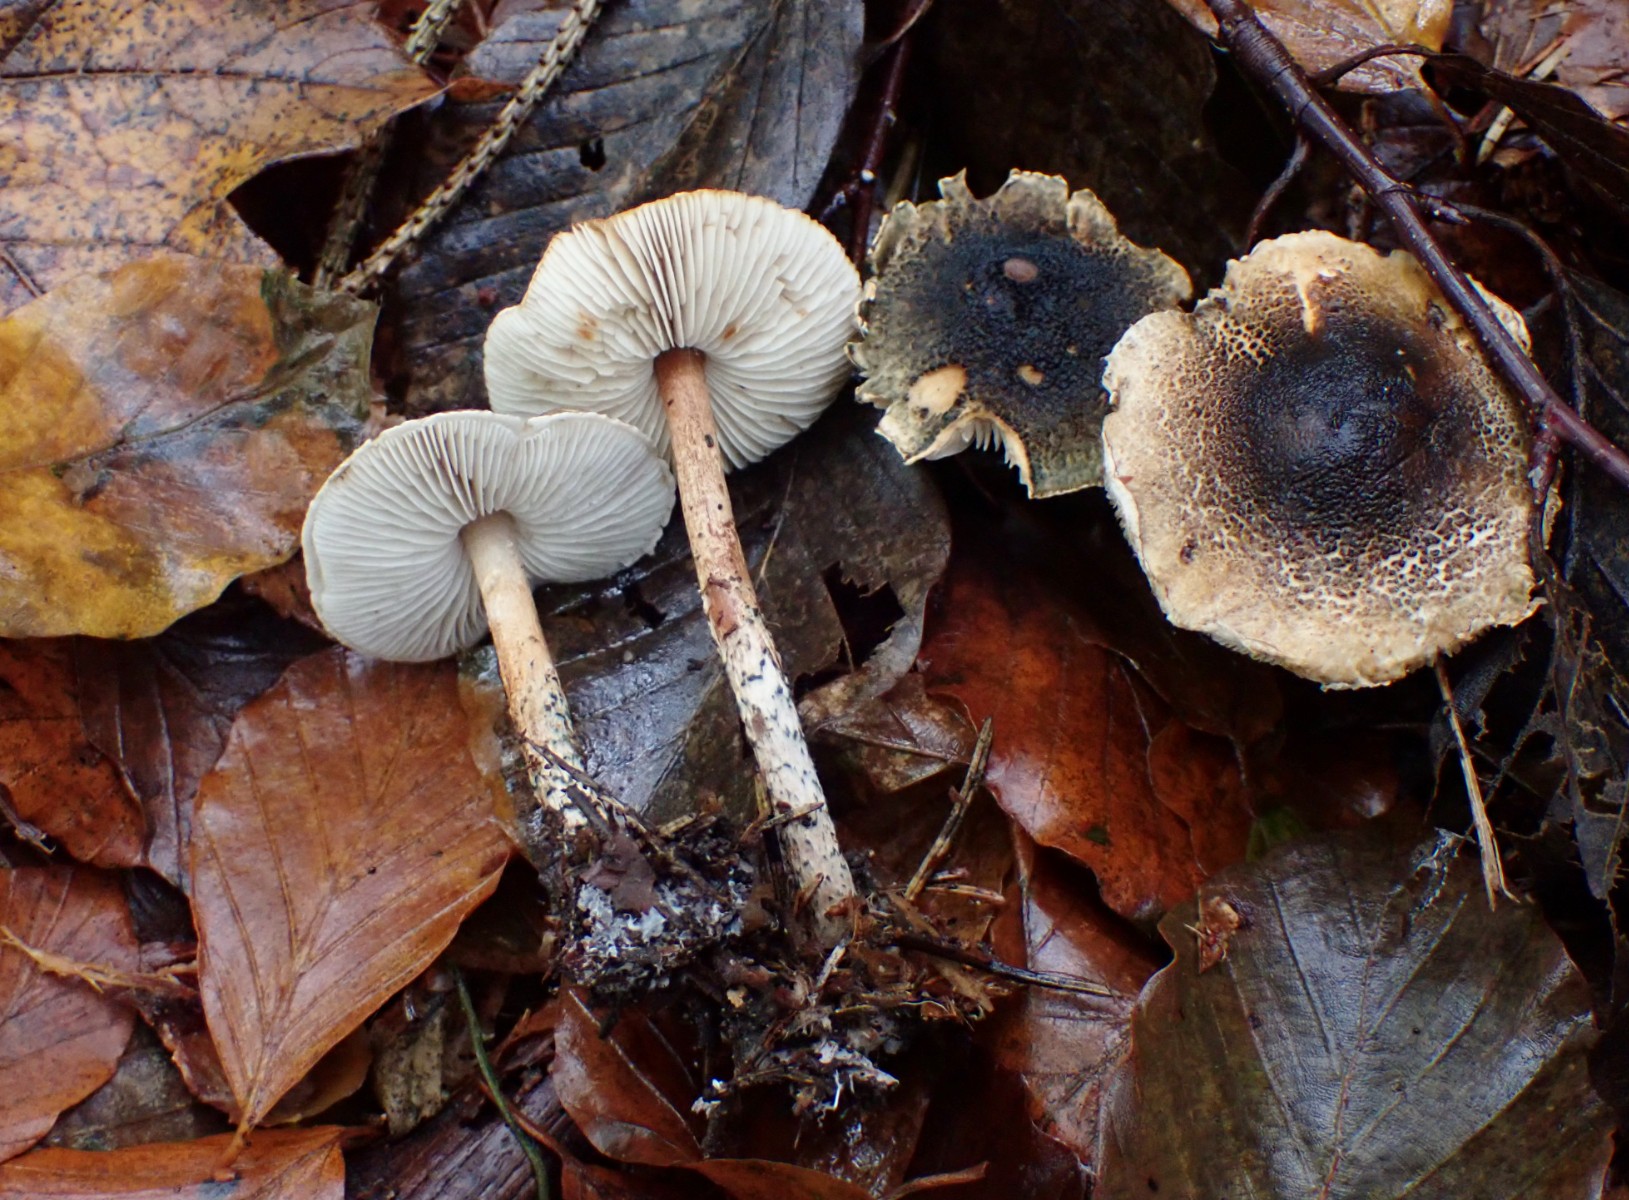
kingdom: Fungi
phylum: Basidiomycota
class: Agaricomycetes
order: Agaricales
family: Agaricaceae
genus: Lepiota
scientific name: Lepiota grangei
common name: grønskællet parasolhat
